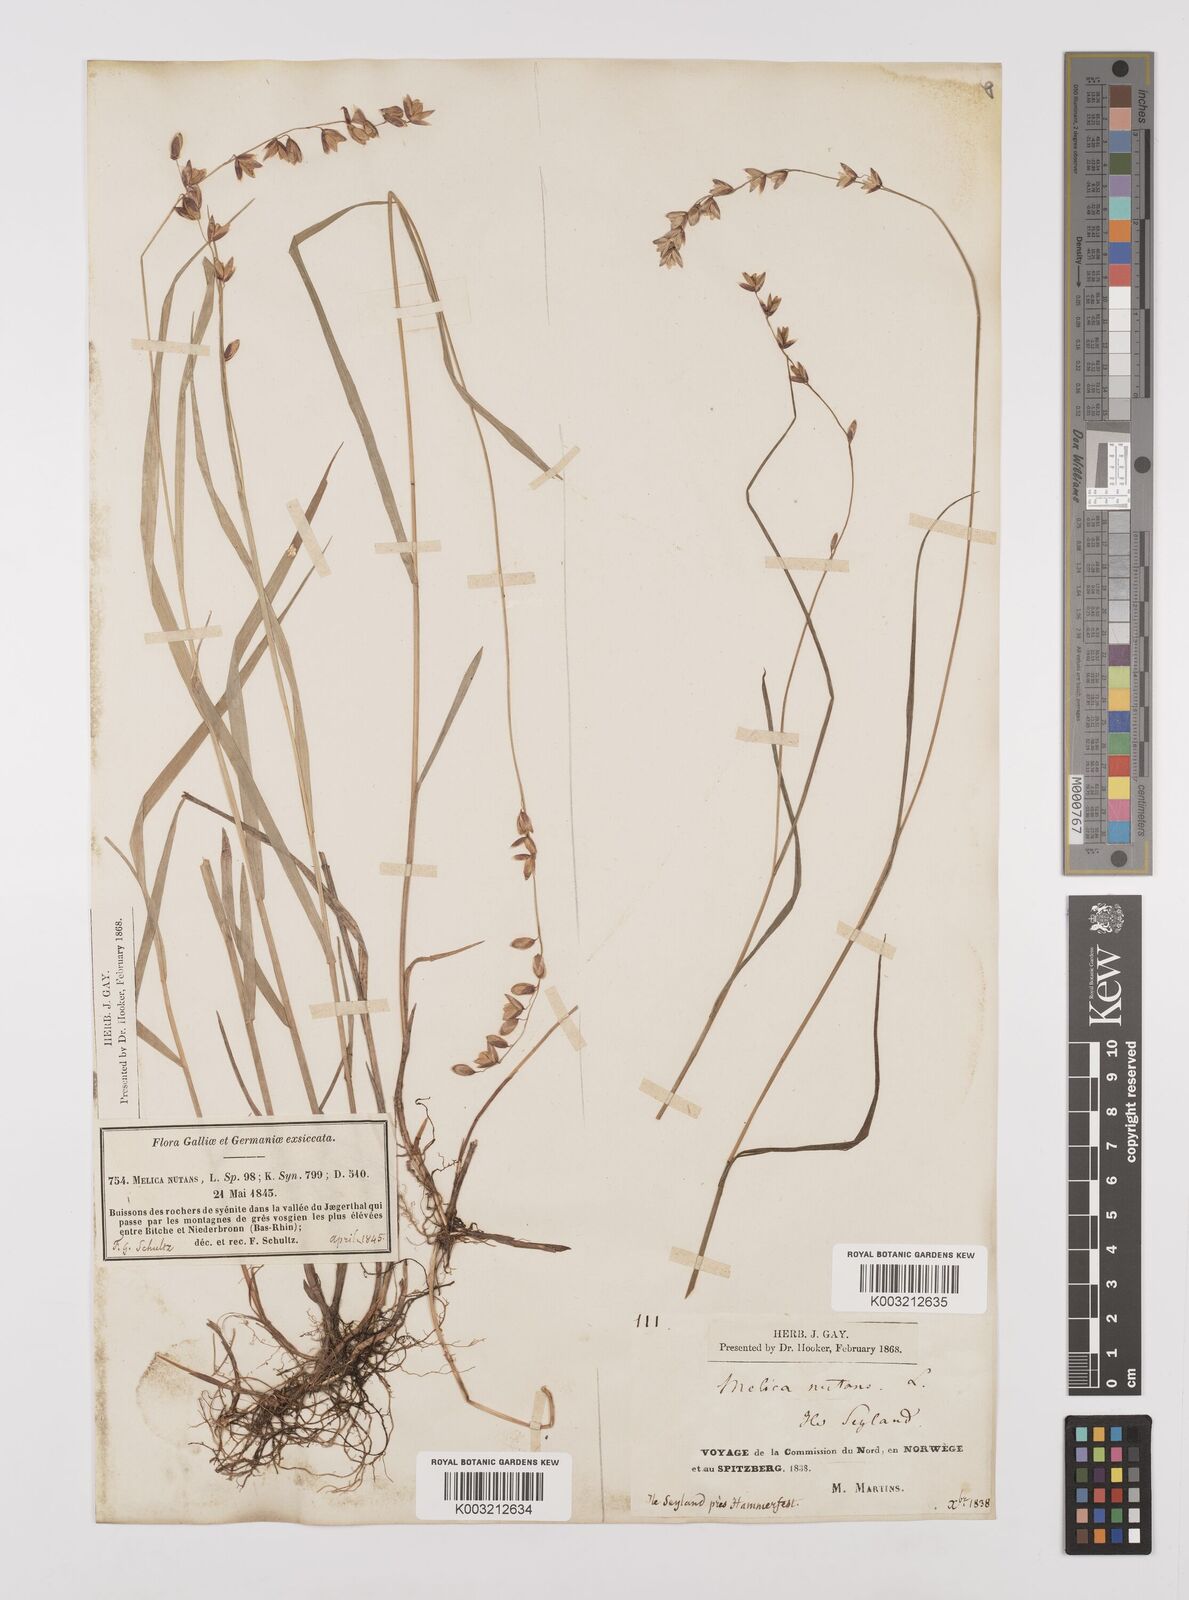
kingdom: Plantae
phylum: Tracheophyta
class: Liliopsida
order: Poales
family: Poaceae
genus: Melica
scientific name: Melica
